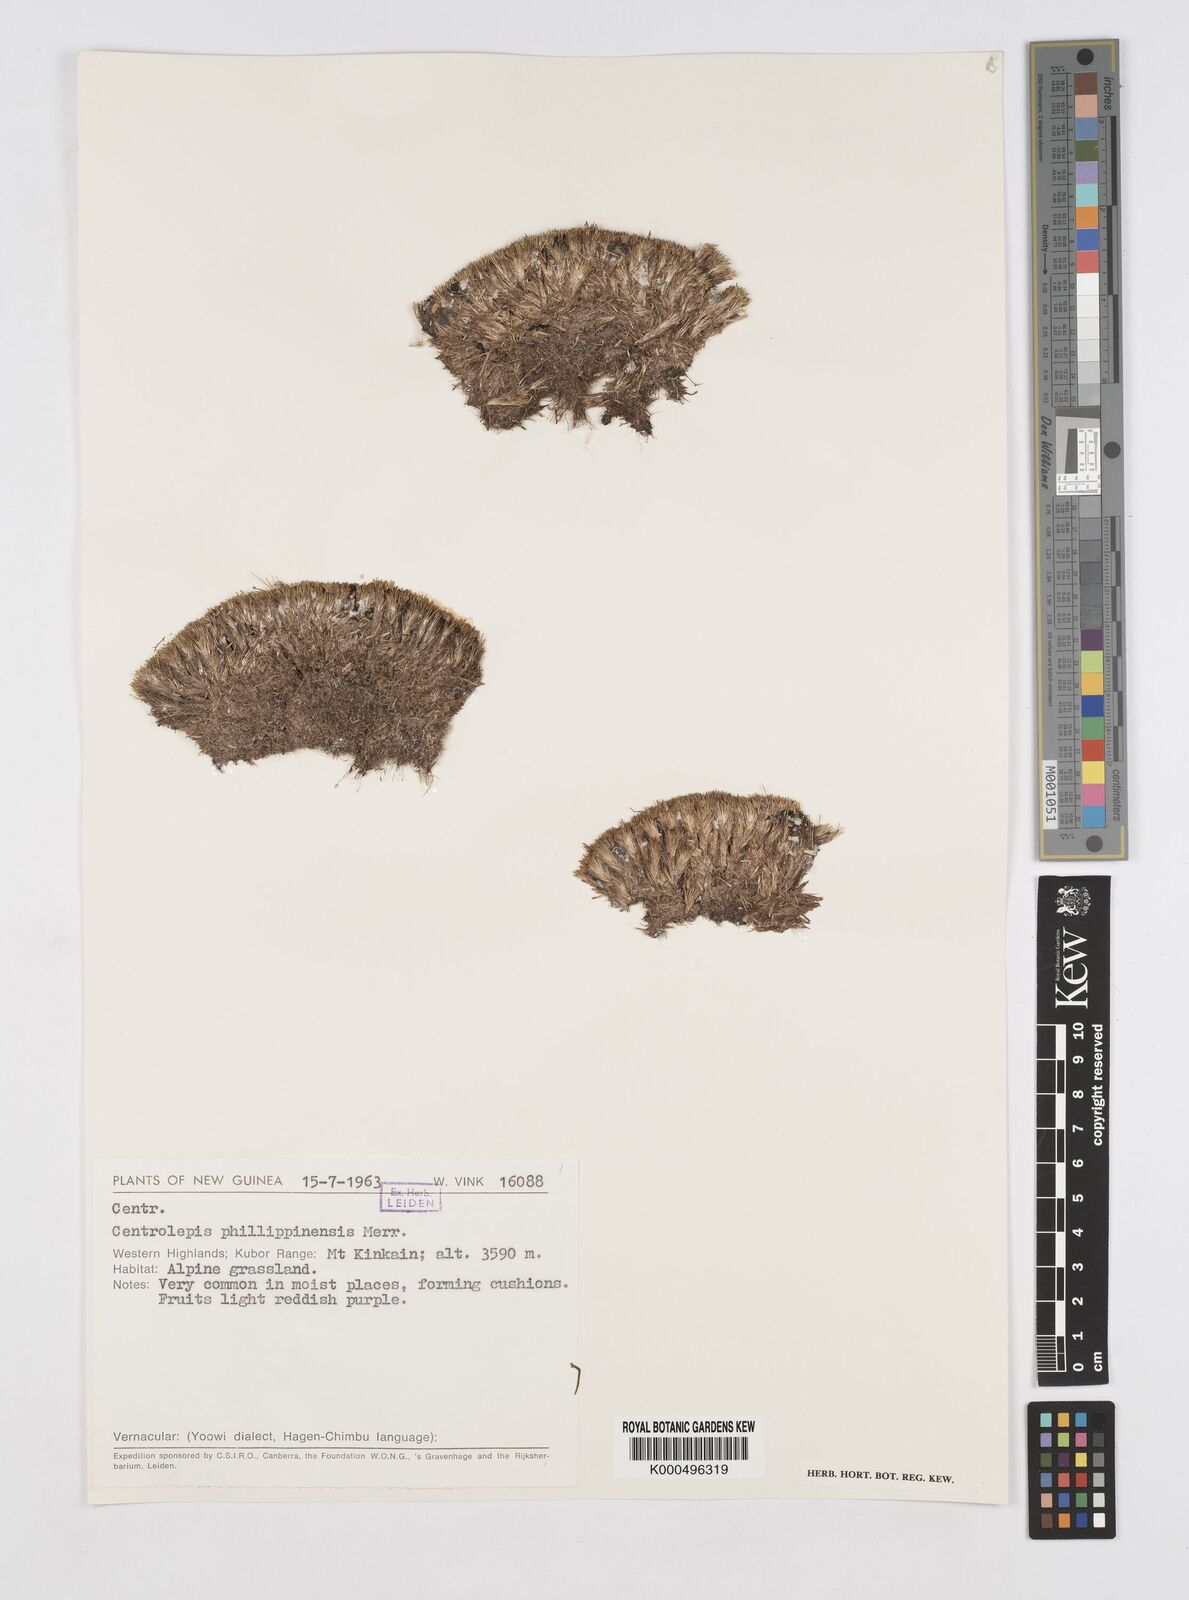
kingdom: Plantae
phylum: Tracheophyta
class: Liliopsida
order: Poales
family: Restionaceae
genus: Centrolepis
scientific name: Centrolepis philippinensis
